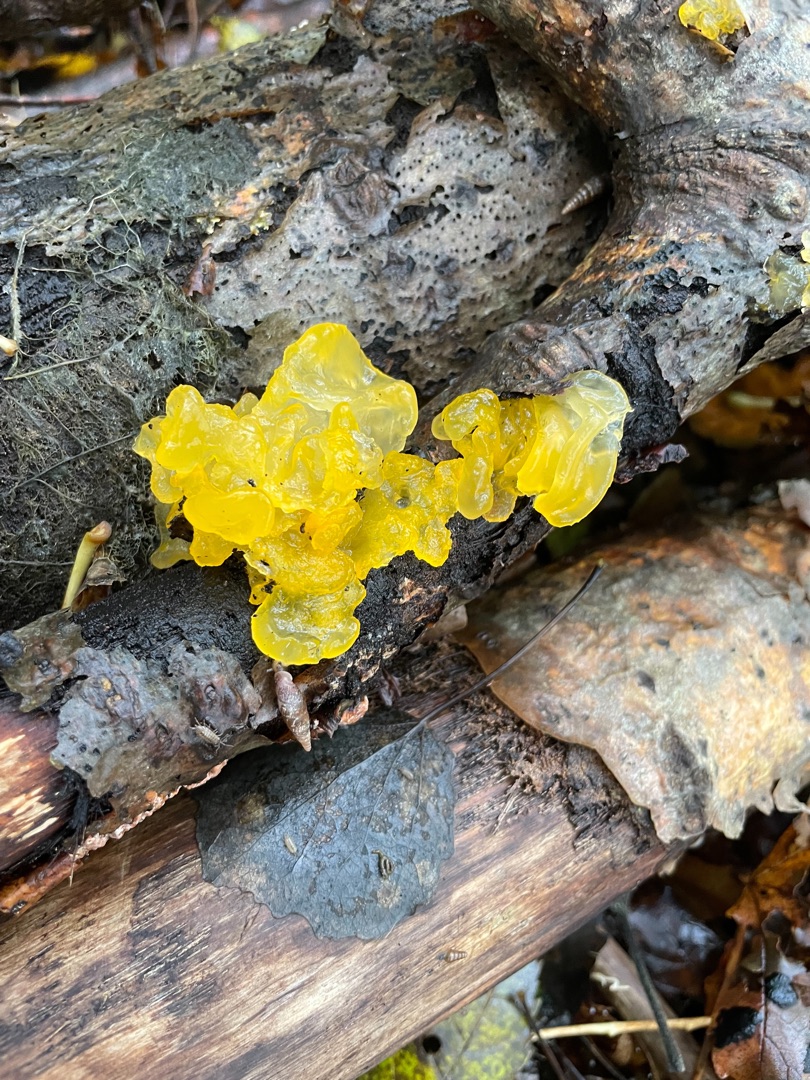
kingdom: Fungi
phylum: Basidiomycota
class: Tremellomycetes
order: Tremellales
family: Tremellaceae
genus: Tremella
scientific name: Tremella mesenterica
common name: Gul bævresvamp
